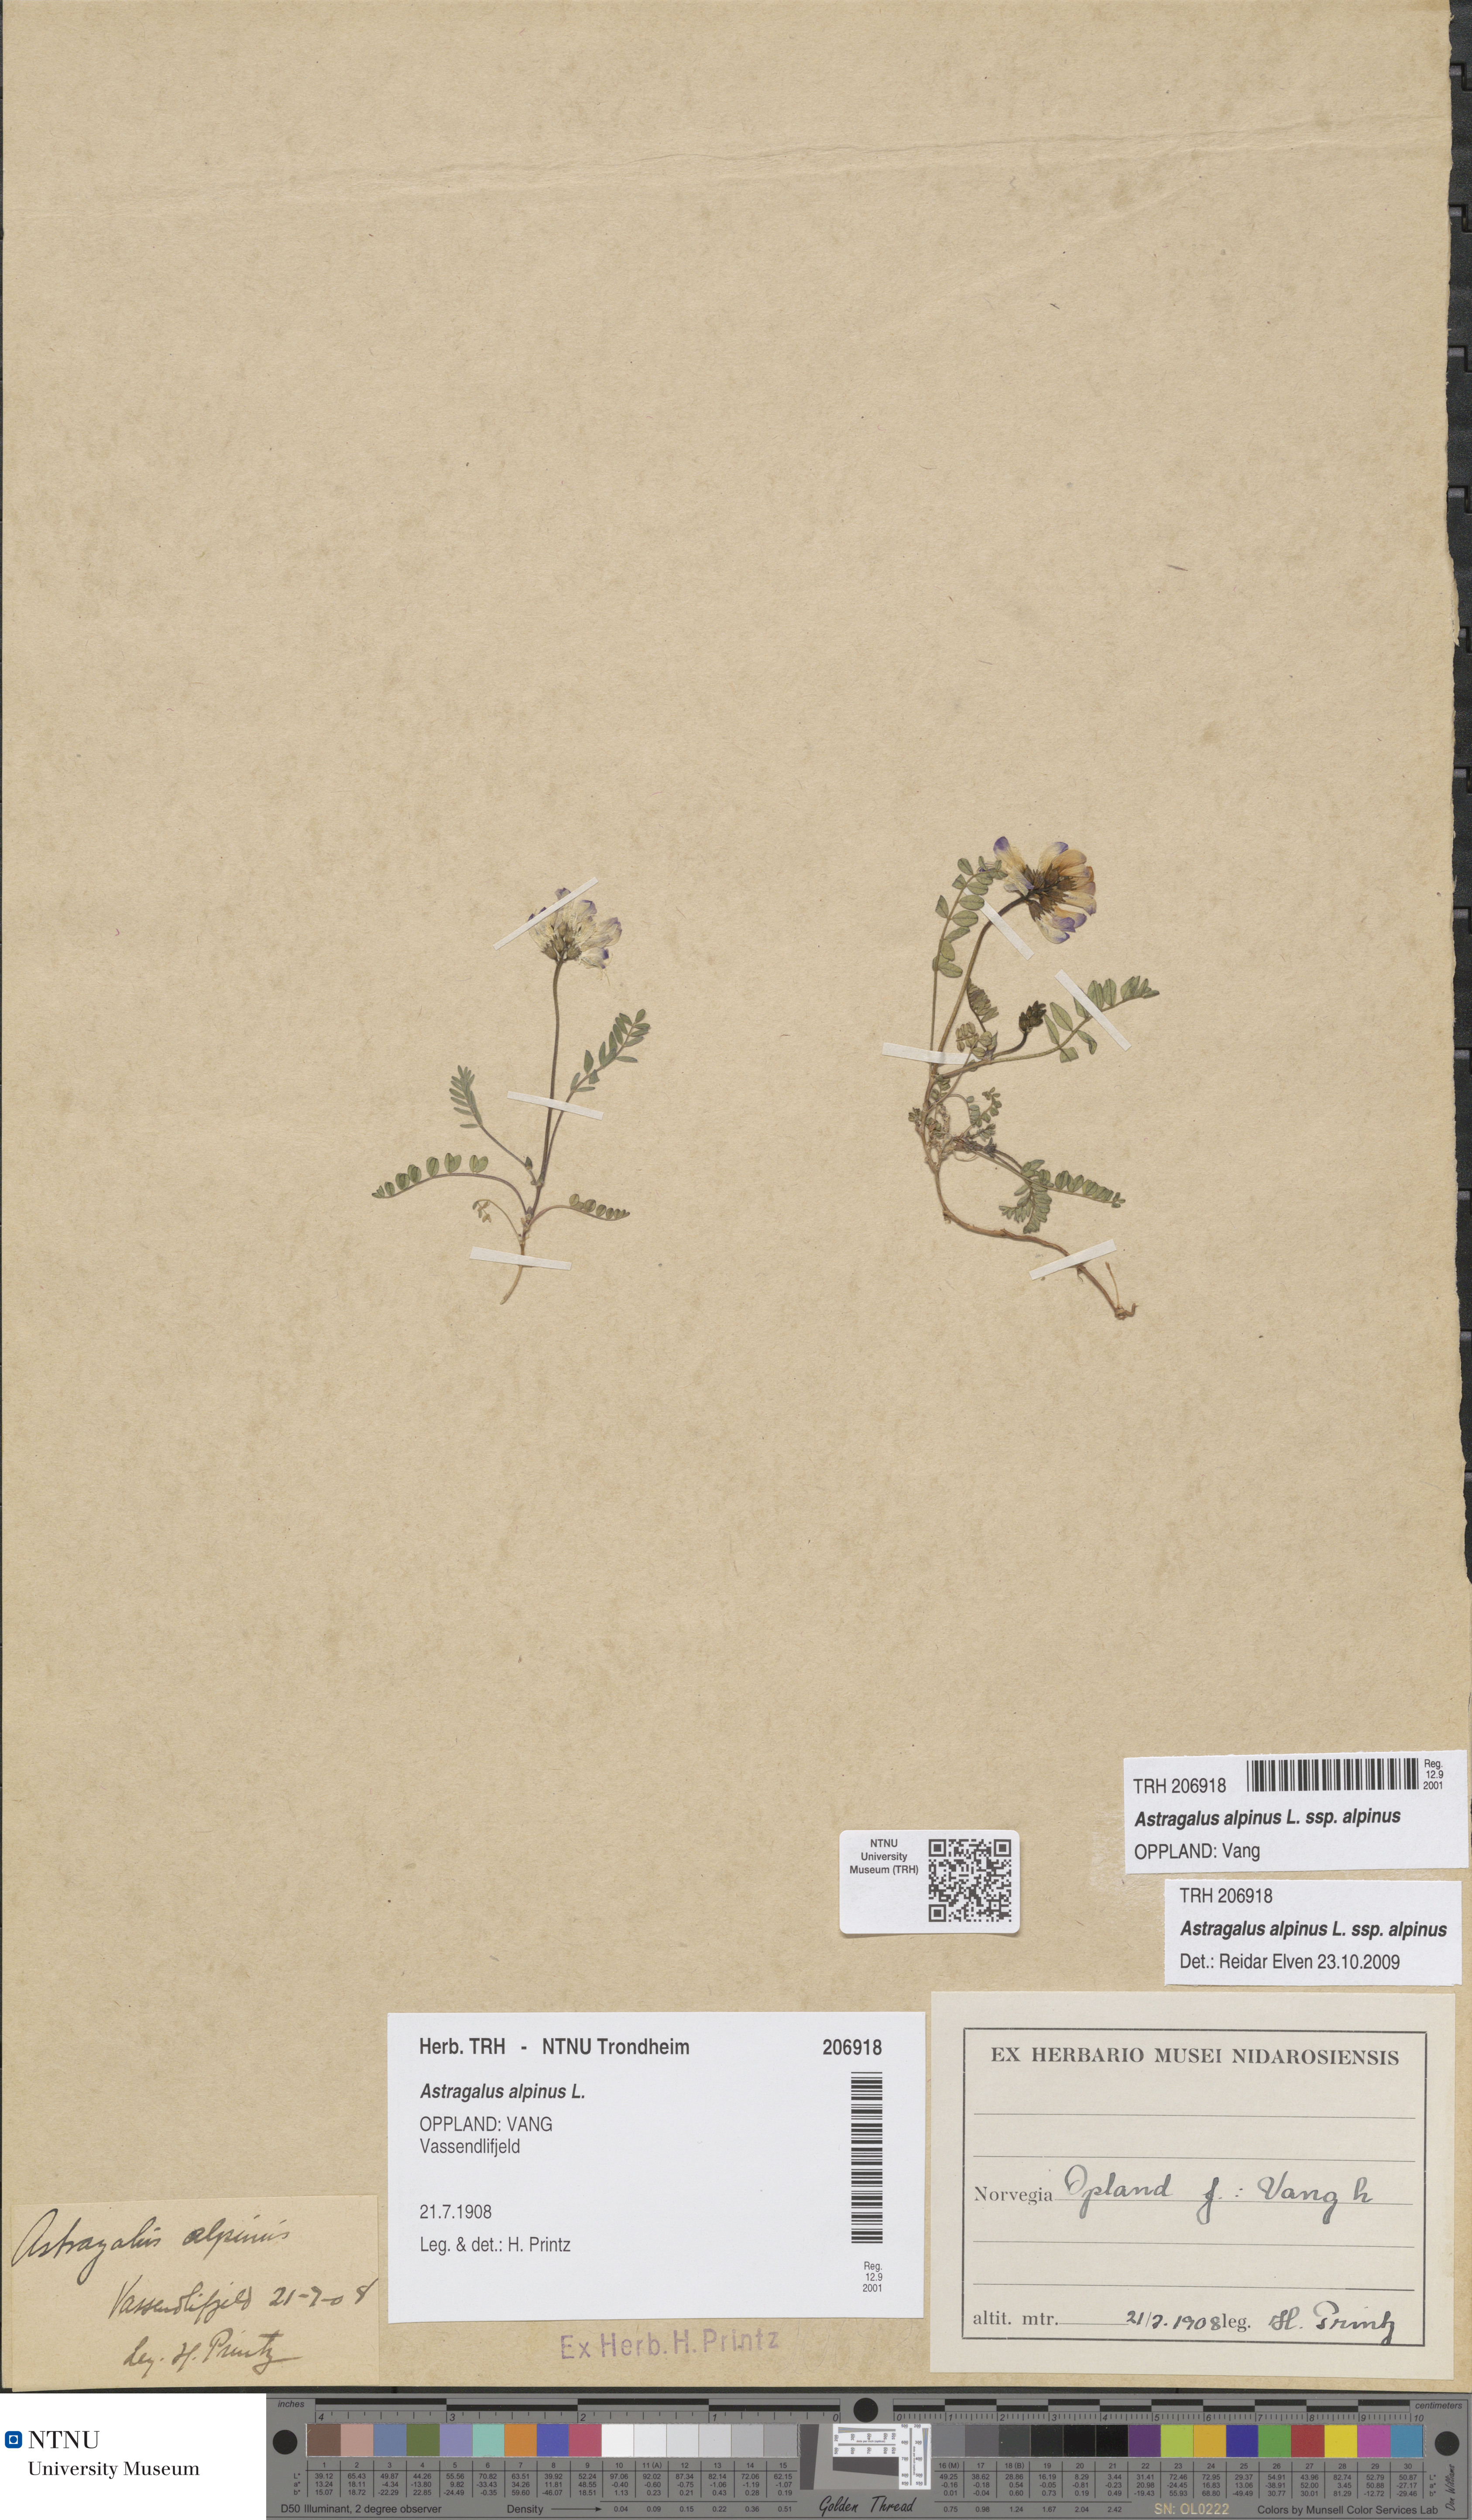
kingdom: Plantae
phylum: Tracheophyta
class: Magnoliopsida
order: Fabales
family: Fabaceae
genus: Astragalus
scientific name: Astragalus alpinus
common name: Alpine milk-vetch
